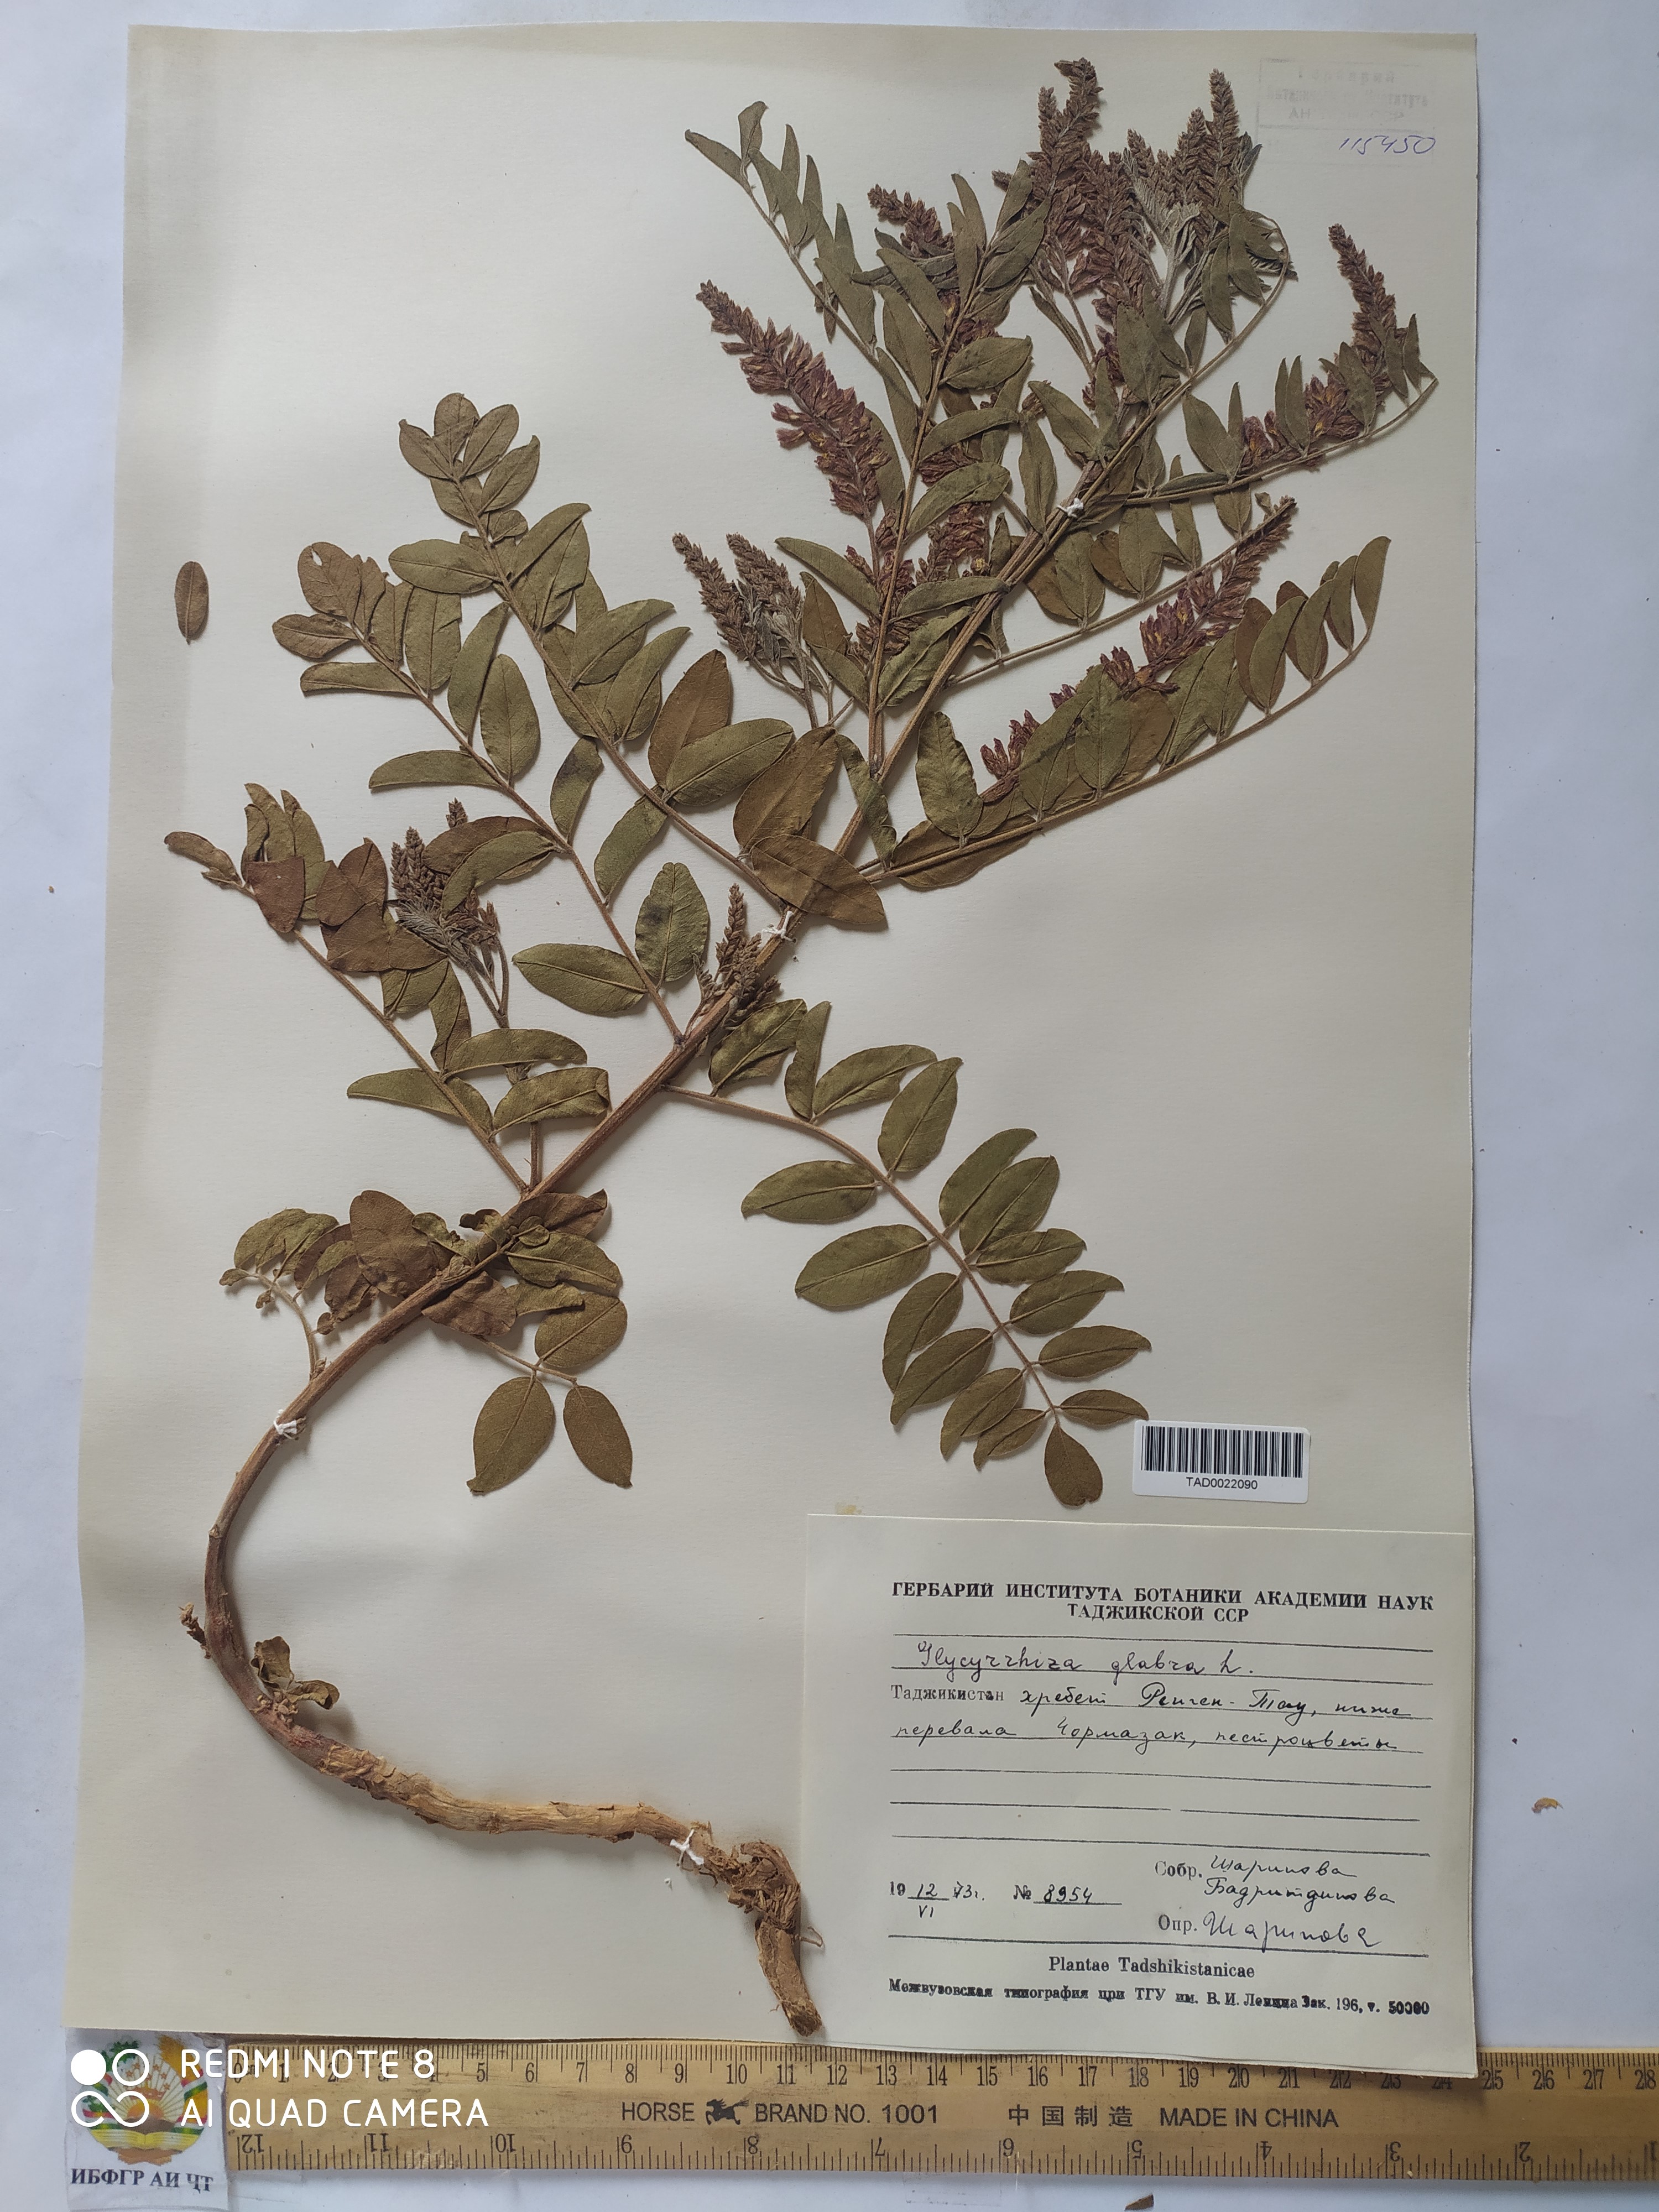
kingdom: Plantae
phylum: Tracheophyta
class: Magnoliopsida
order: Fabales
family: Fabaceae
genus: Glycyrrhiza
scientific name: Glycyrrhiza glabra
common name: Liquorice
